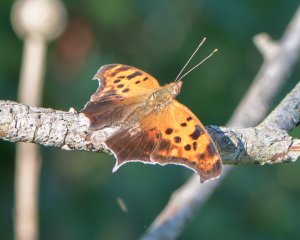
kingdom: Animalia
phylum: Arthropoda
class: Insecta
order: Lepidoptera
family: Nymphalidae
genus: Polygonia
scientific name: Polygonia interrogationis
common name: Question Mark
